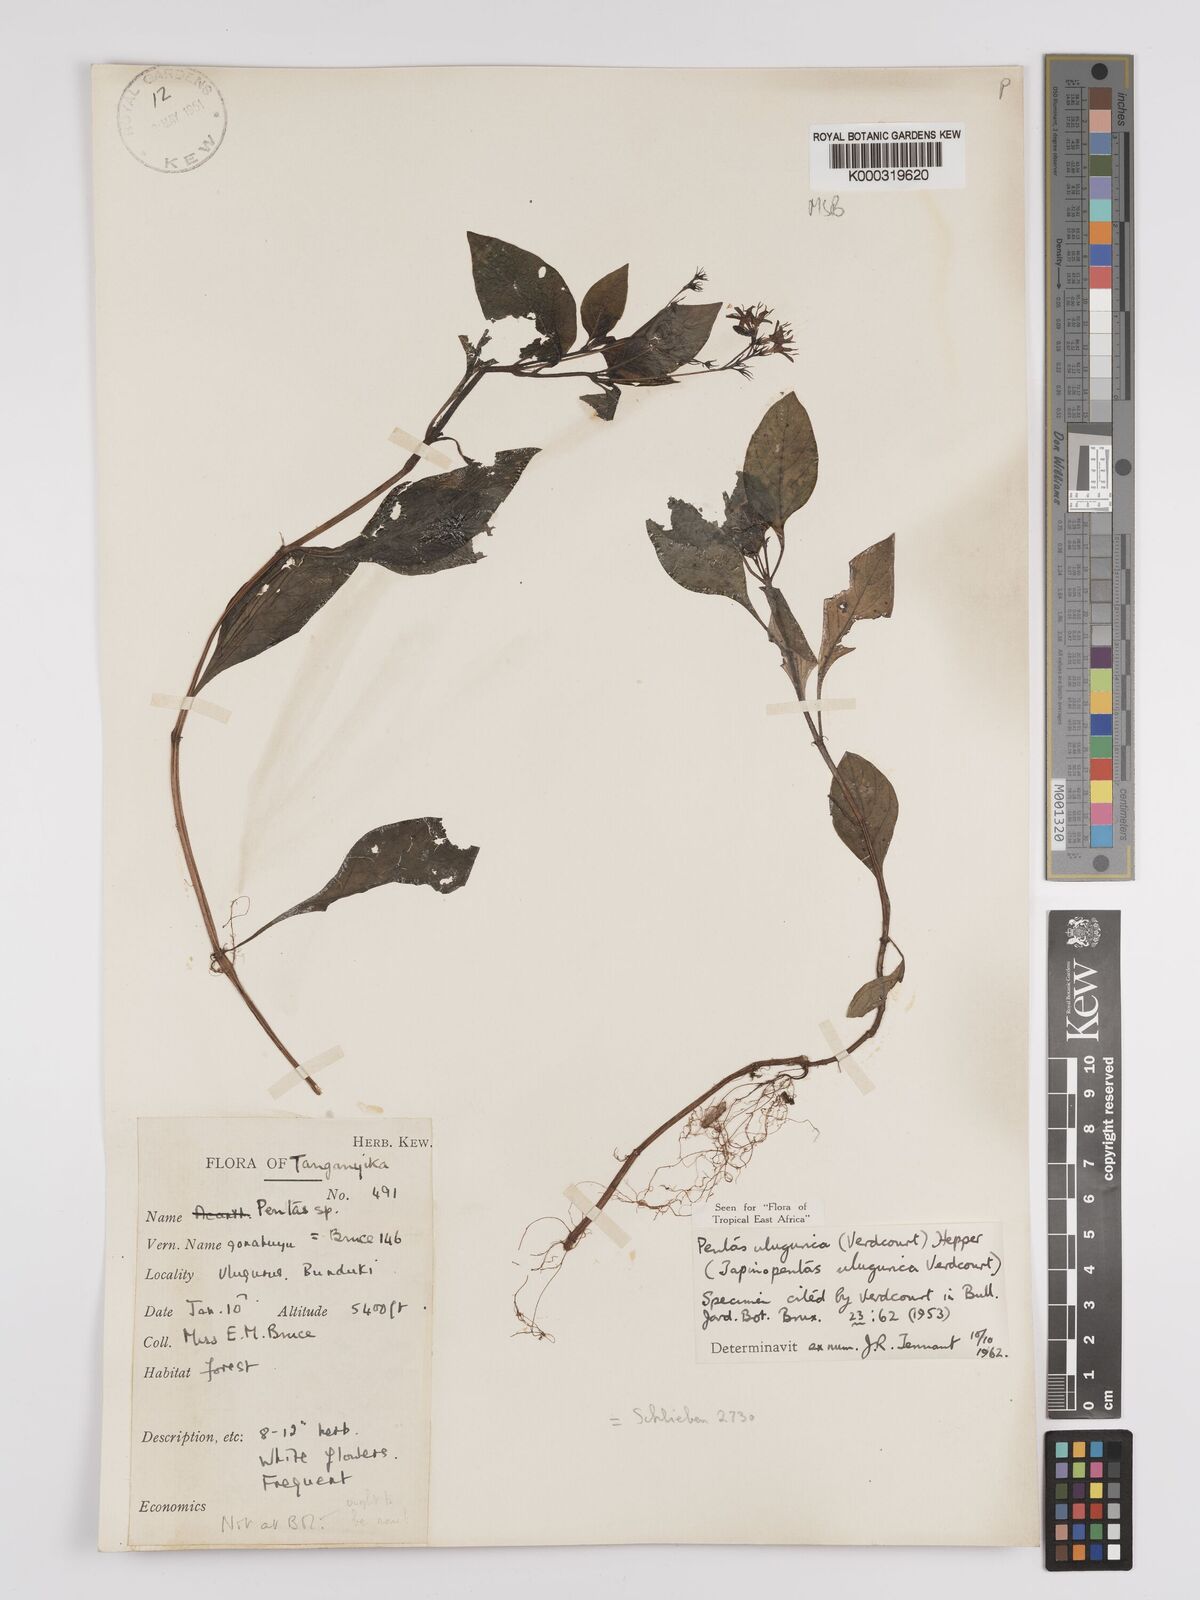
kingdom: Plantae
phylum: Tracheophyta
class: Magnoliopsida
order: Gentianales
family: Rubiaceae
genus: Phyllopentas
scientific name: Phyllopentas ulugurica
